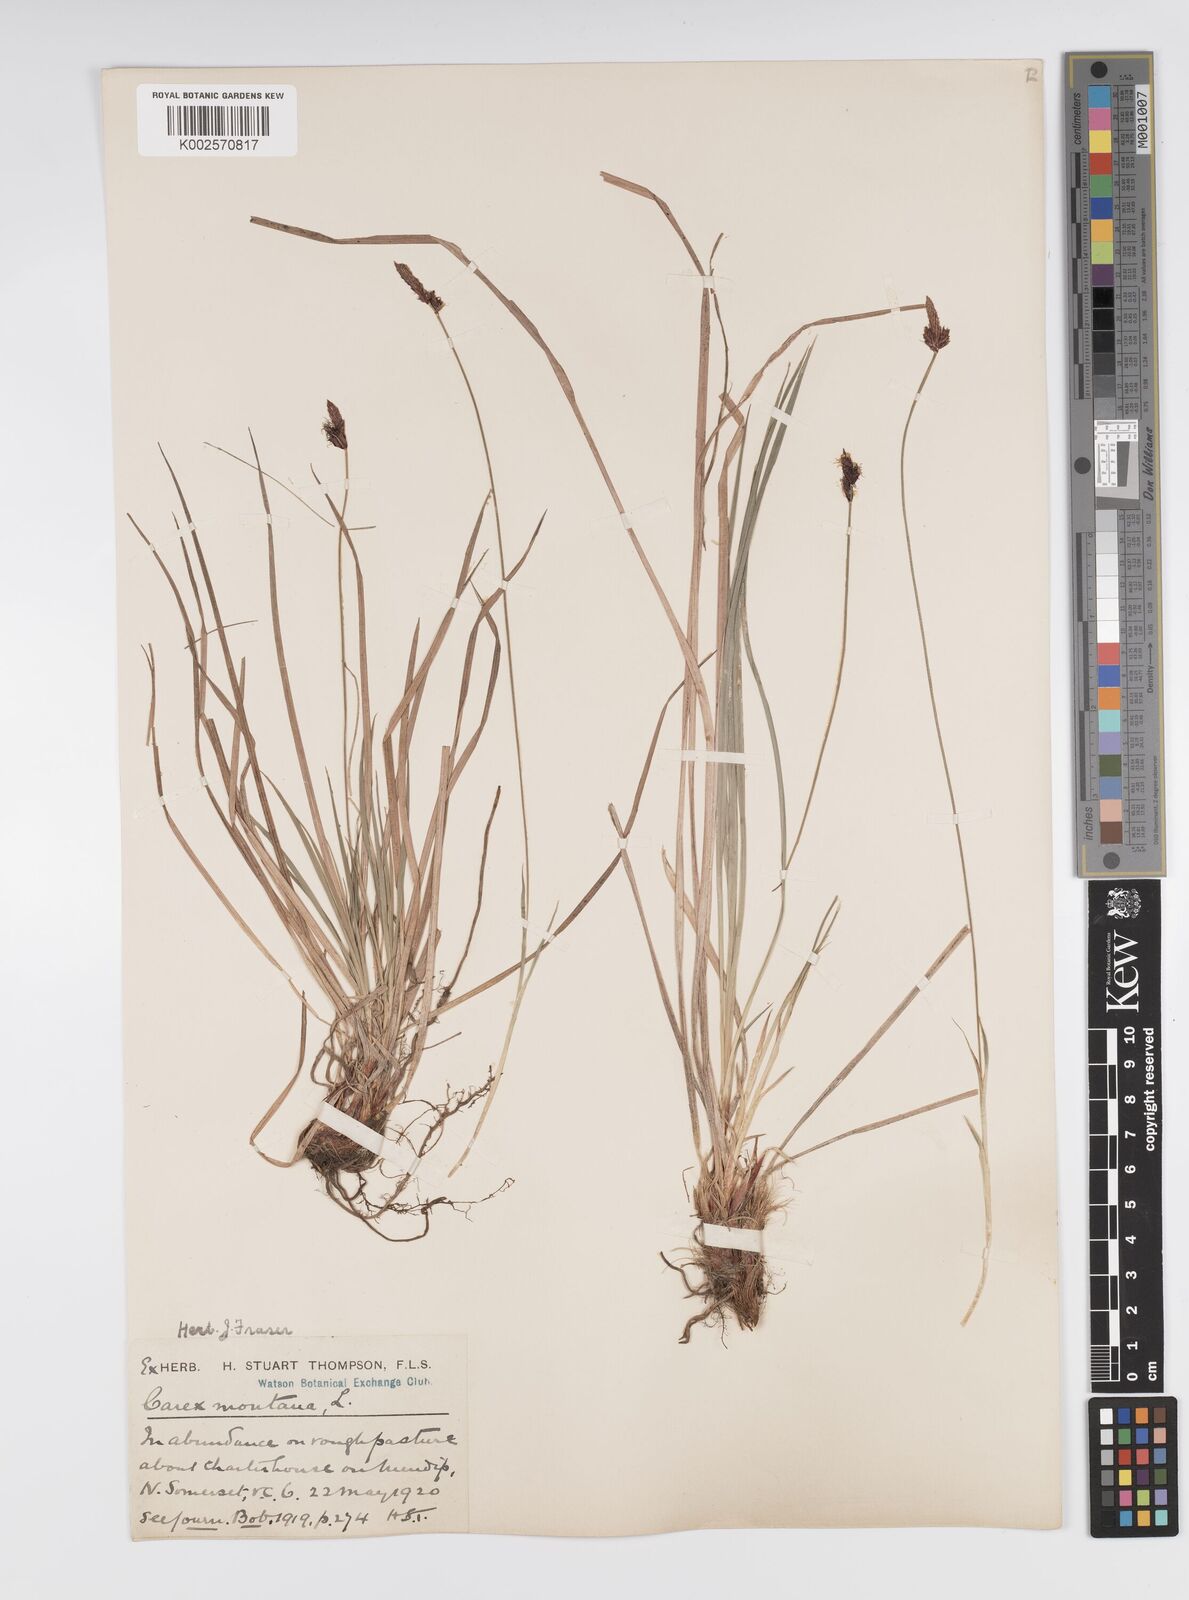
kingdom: Plantae
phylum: Tracheophyta
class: Liliopsida
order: Poales
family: Cyperaceae
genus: Carex
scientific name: Carex montana
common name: Soft-leaved sedge
